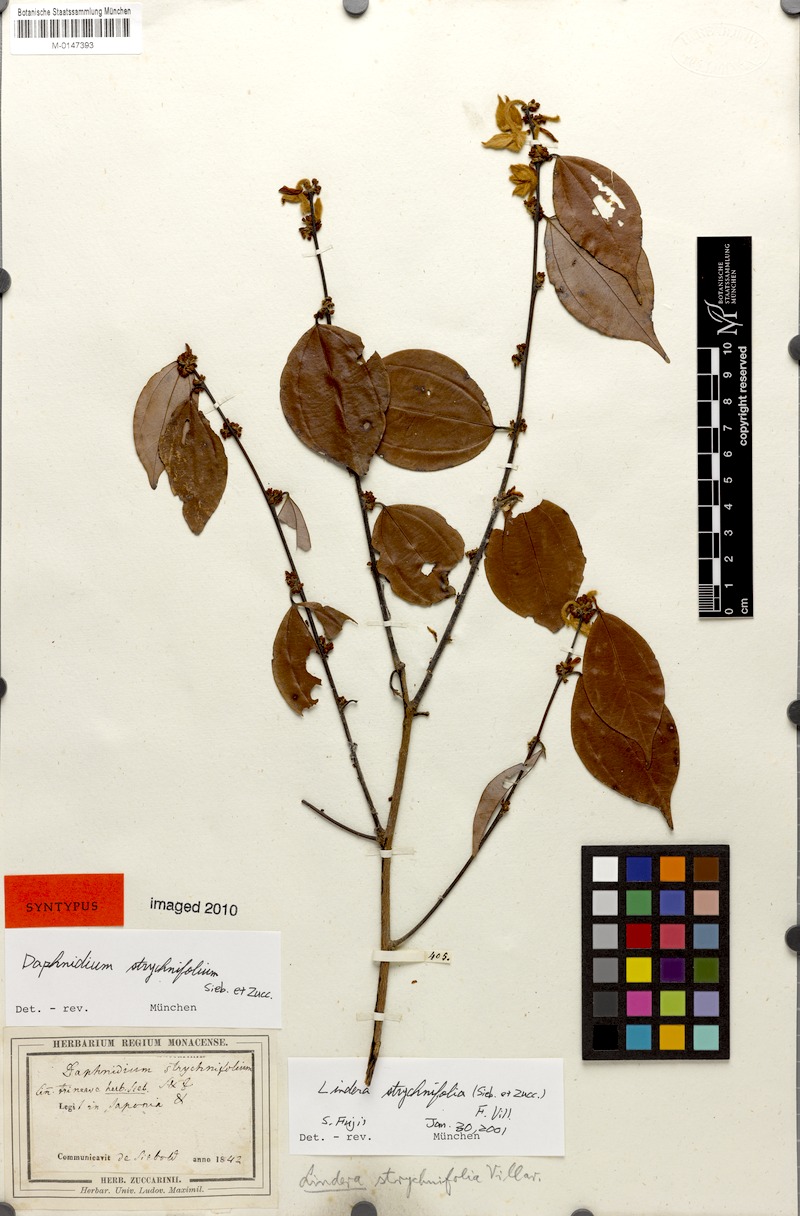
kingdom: Plantae
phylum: Tracheophyta
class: Magnoliopsida
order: Laurales
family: Lauraceae
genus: Lindera
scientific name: Lindera aggregata
